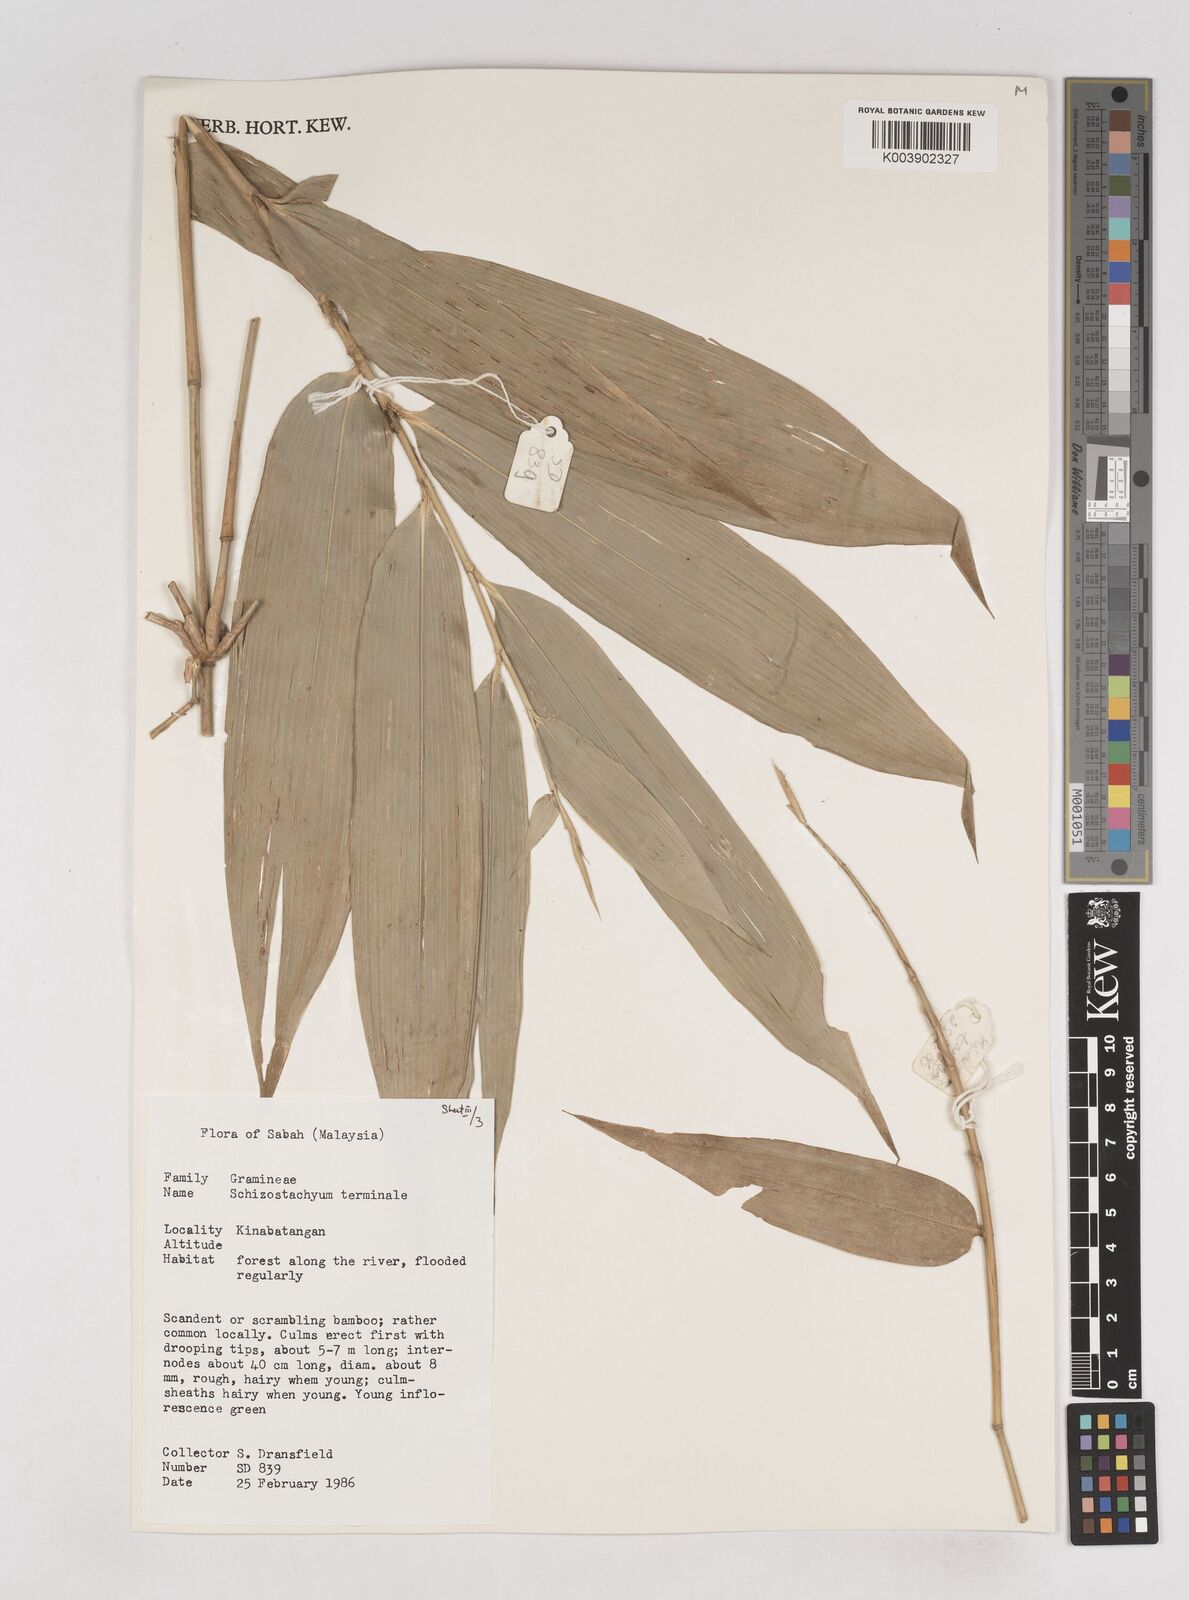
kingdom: Plantae
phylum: Tracheophyta
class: Liliopsida
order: Poales
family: Poaceae
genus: Schizostachyum
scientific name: Schizostachyum terminale
